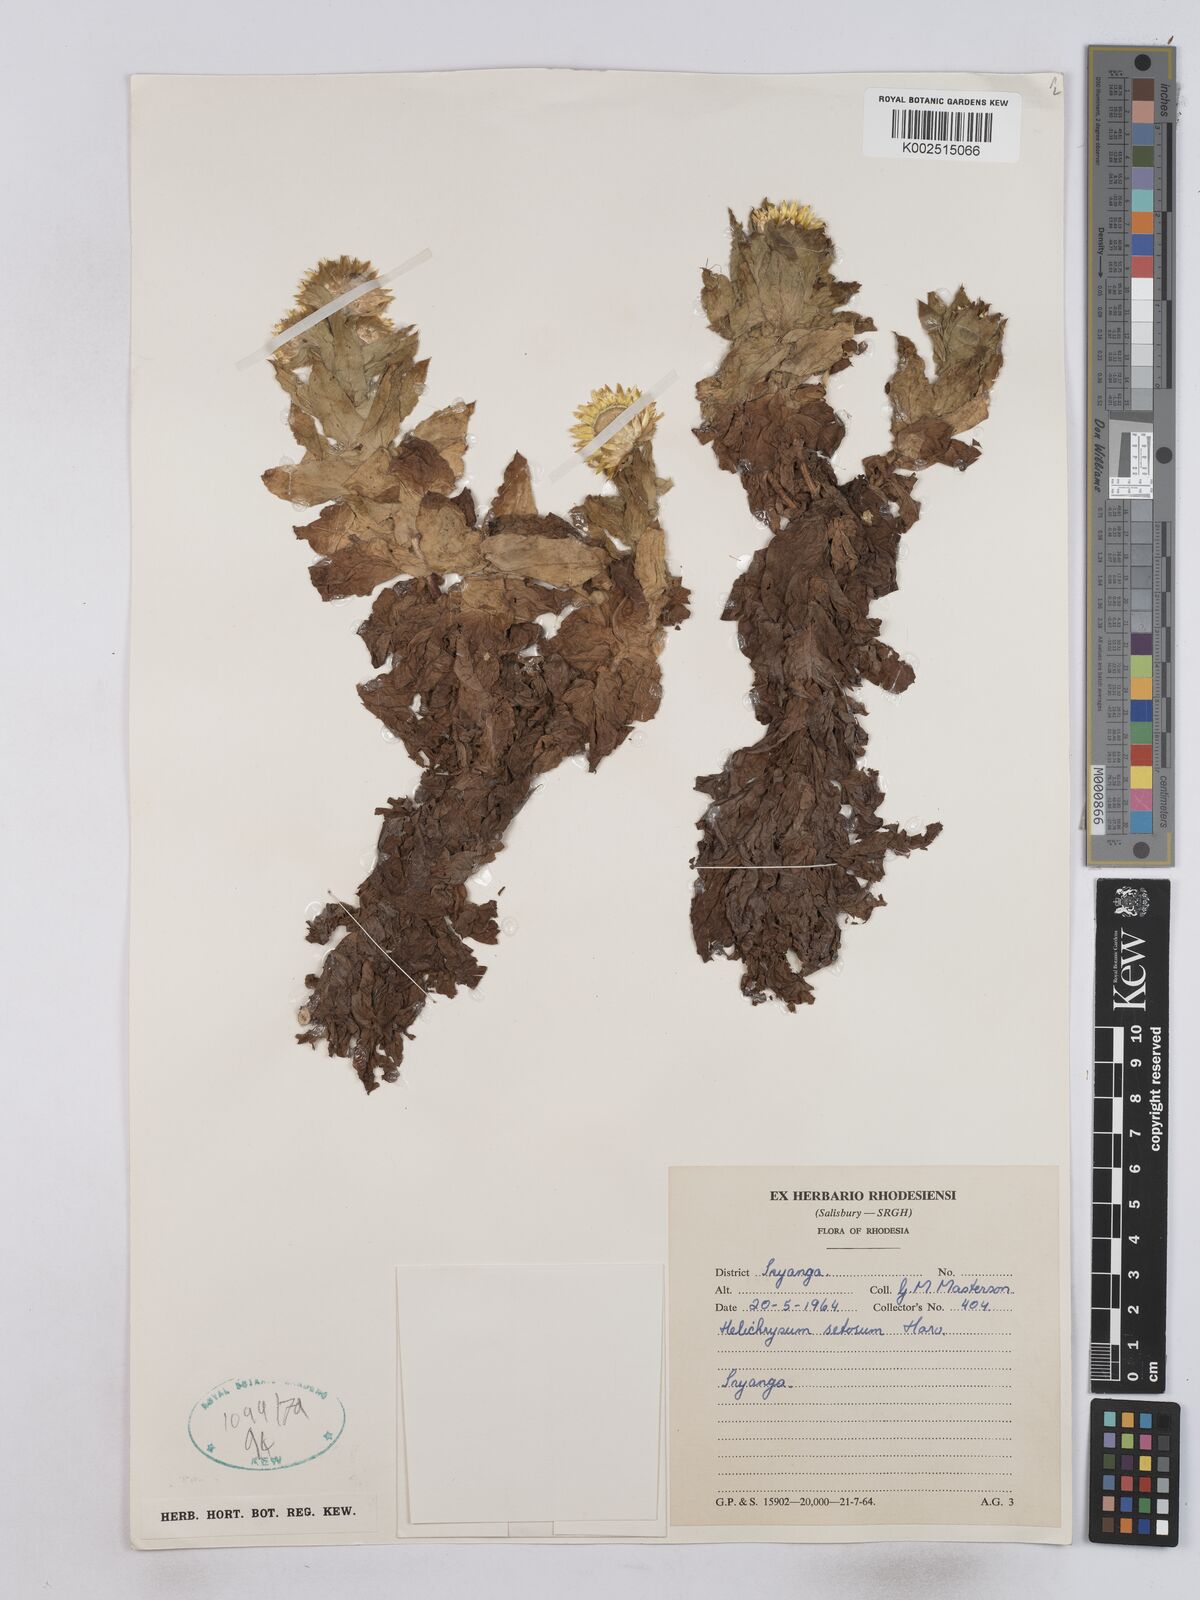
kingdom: Plantae
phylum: Tracheophyta
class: Magnoliopsida
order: Asterales
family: Asteraceae
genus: Helichrysum
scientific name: Helichrysum setosum
